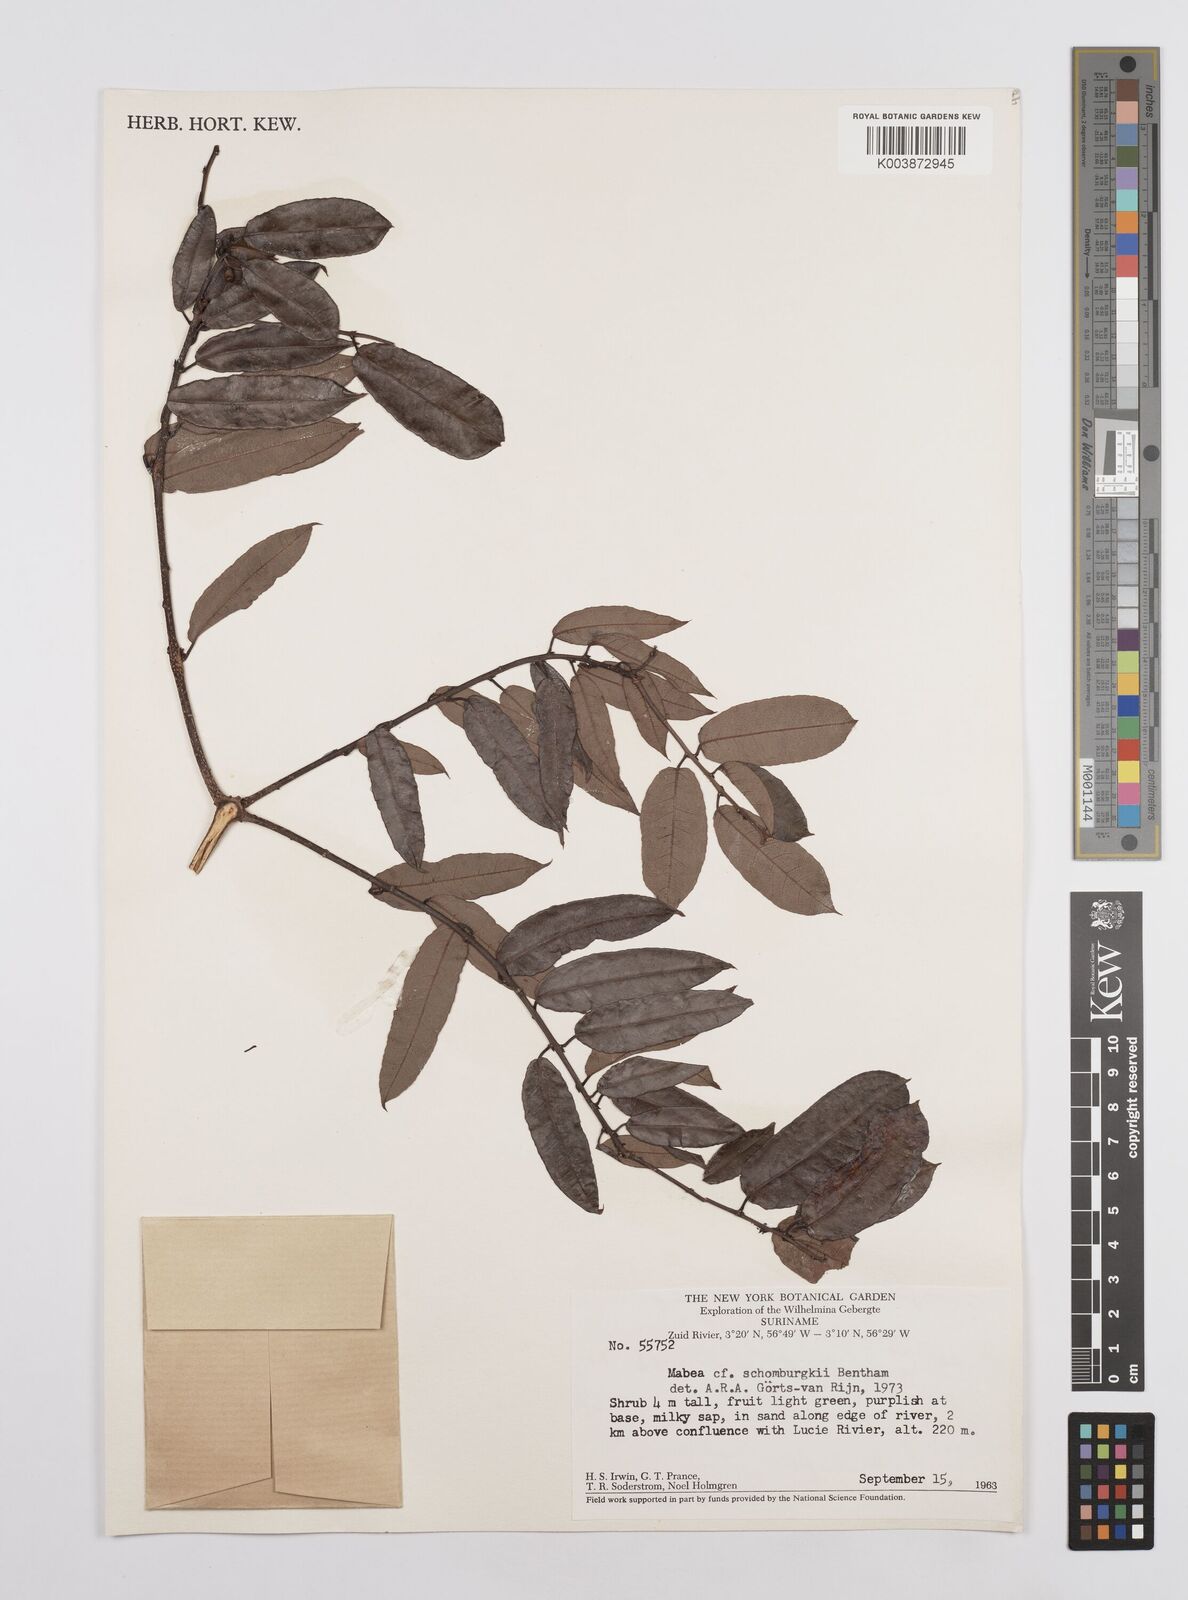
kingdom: Plantae
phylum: Tracheophyta
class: Magnoliopsida
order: Malpighiales
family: Euphorbiaceae
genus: Mabea
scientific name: Mabea taquari
